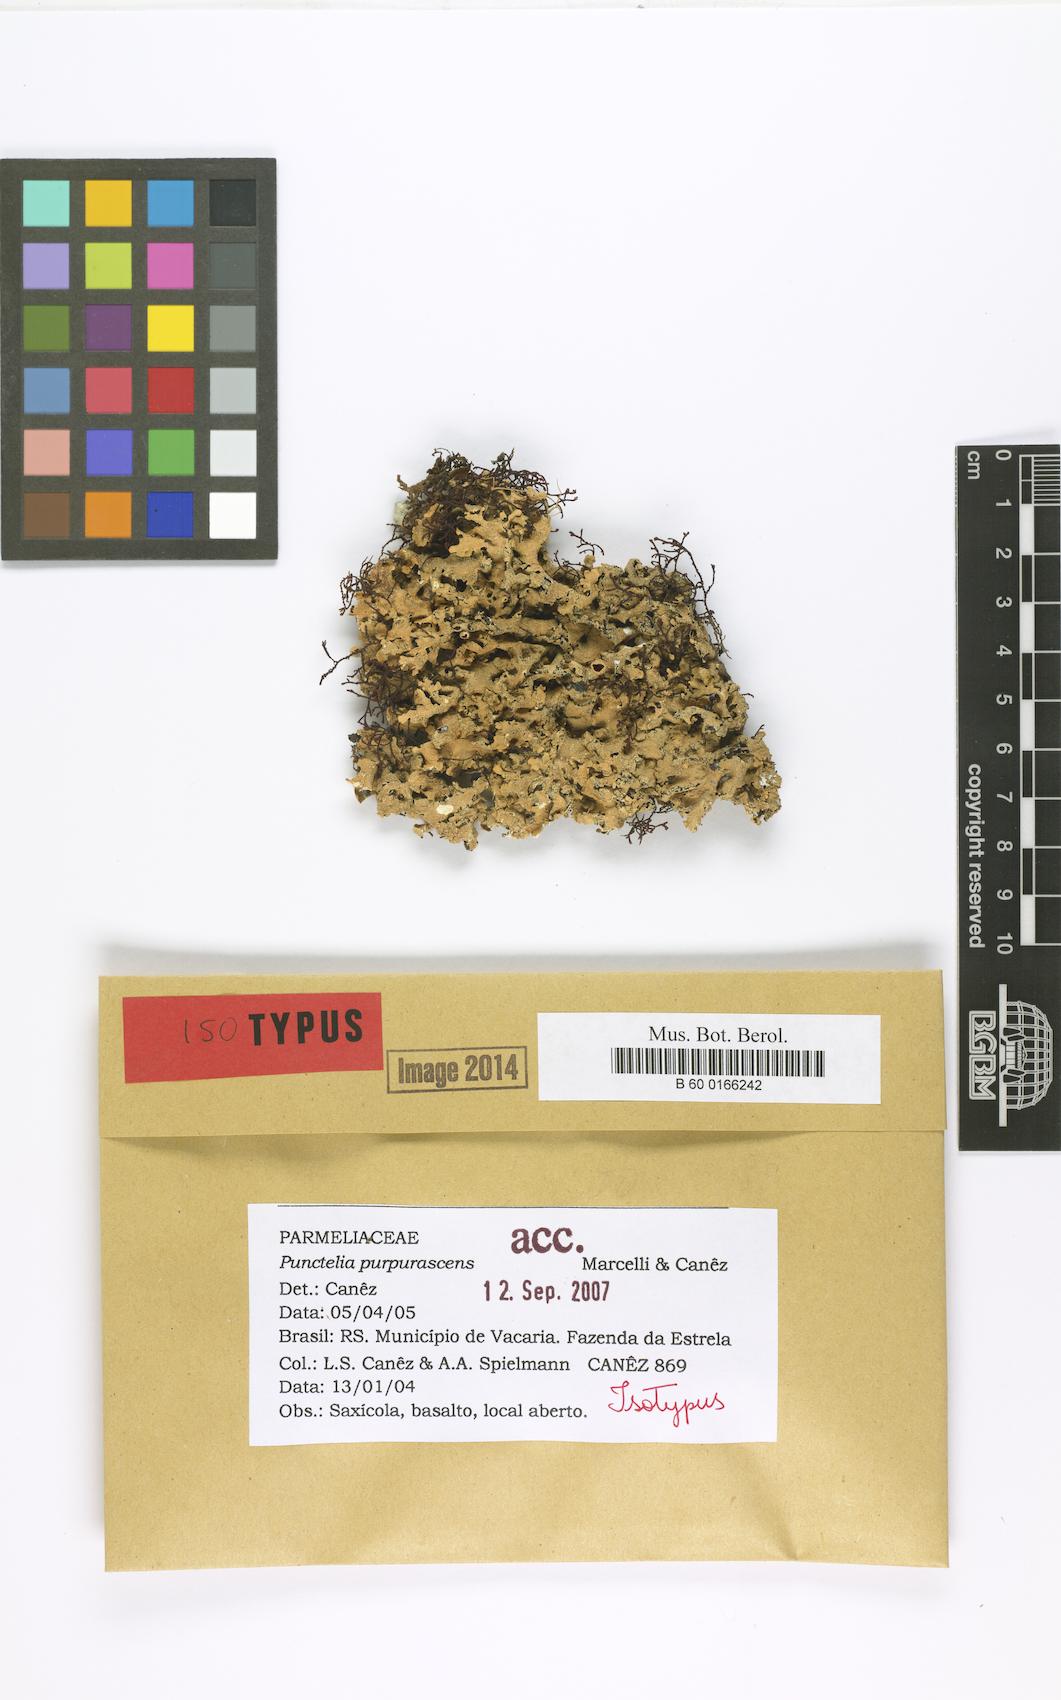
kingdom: Fungi
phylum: Ascomycota
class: Lecanoromycetes
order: Lecanorales
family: Parmeliaceae
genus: Punctelia
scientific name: Punctelia purpurascens
